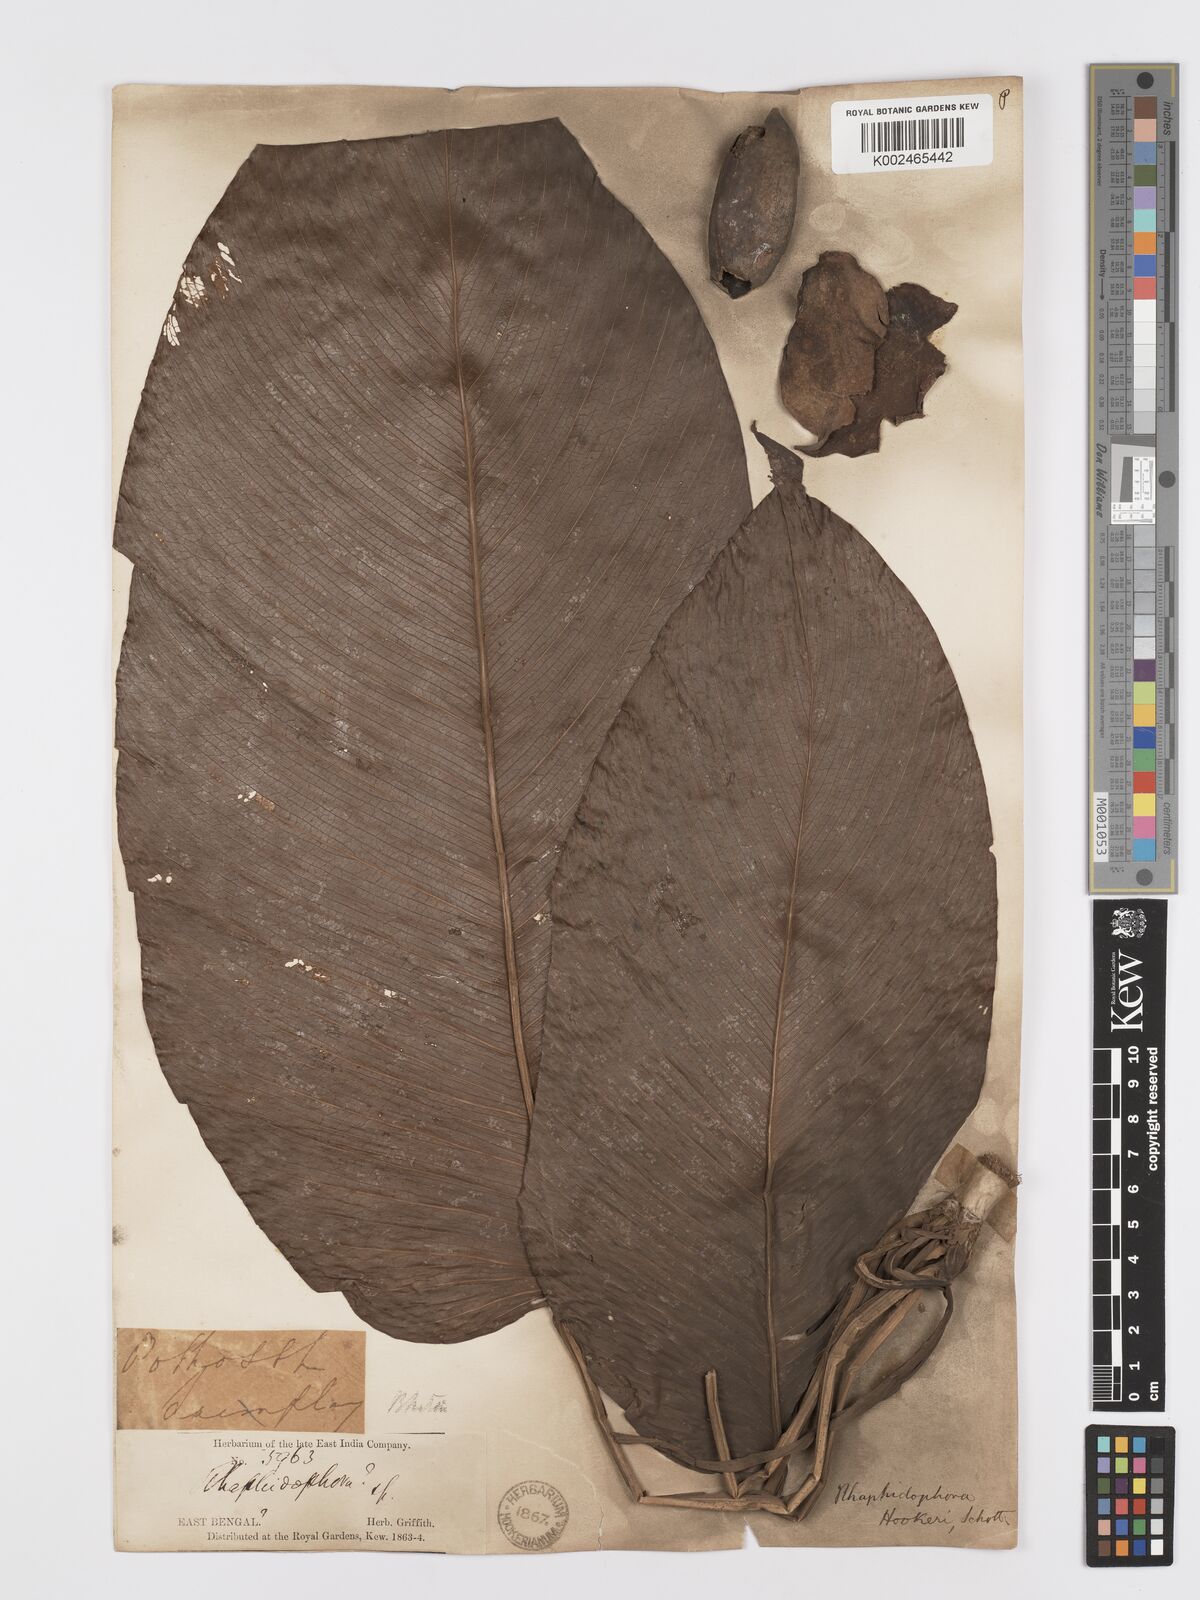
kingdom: Plantae
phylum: Tracheophyta
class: Liliopsida
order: Alismatales
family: Araceae
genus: Rhaphidophora
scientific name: Rhaphidophora hookeri
